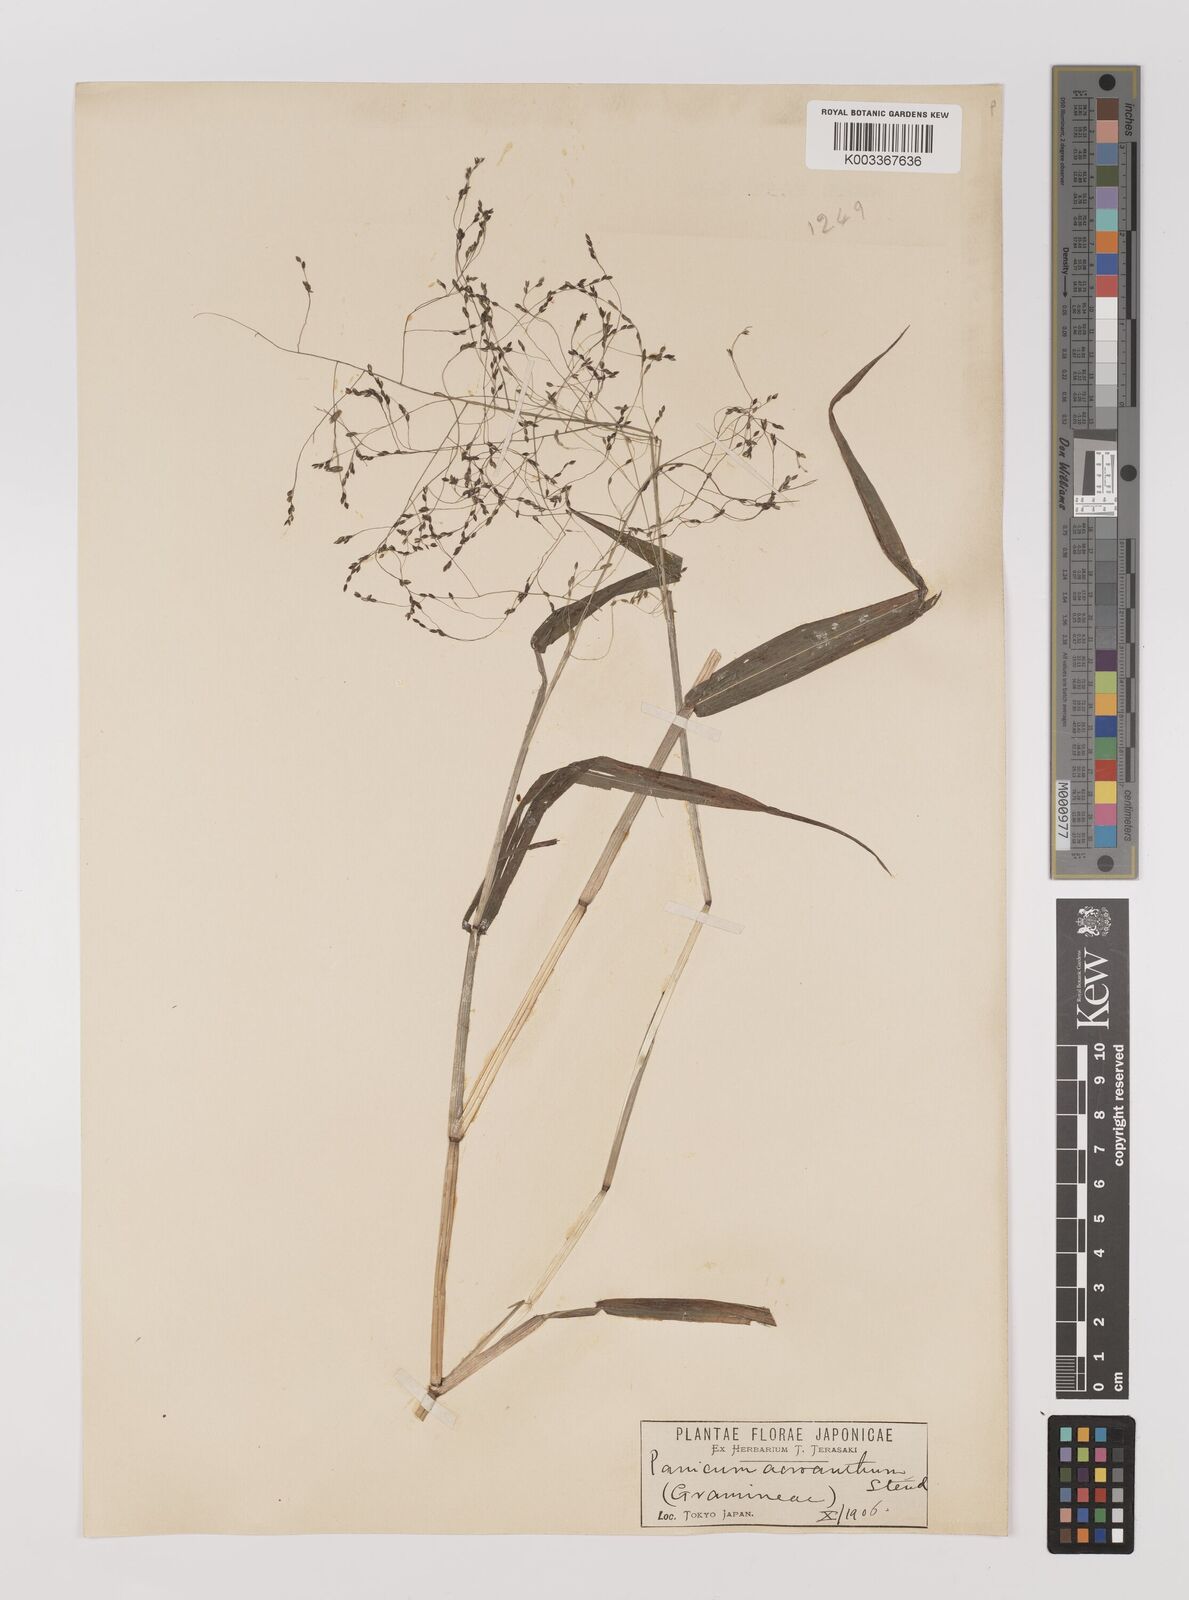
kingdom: Plantae
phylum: Tracheophyta
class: Liliopsida
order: Poales
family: Poaceae
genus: Panicum
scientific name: Panicum bisulcatum
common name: Japanese panicgrass
